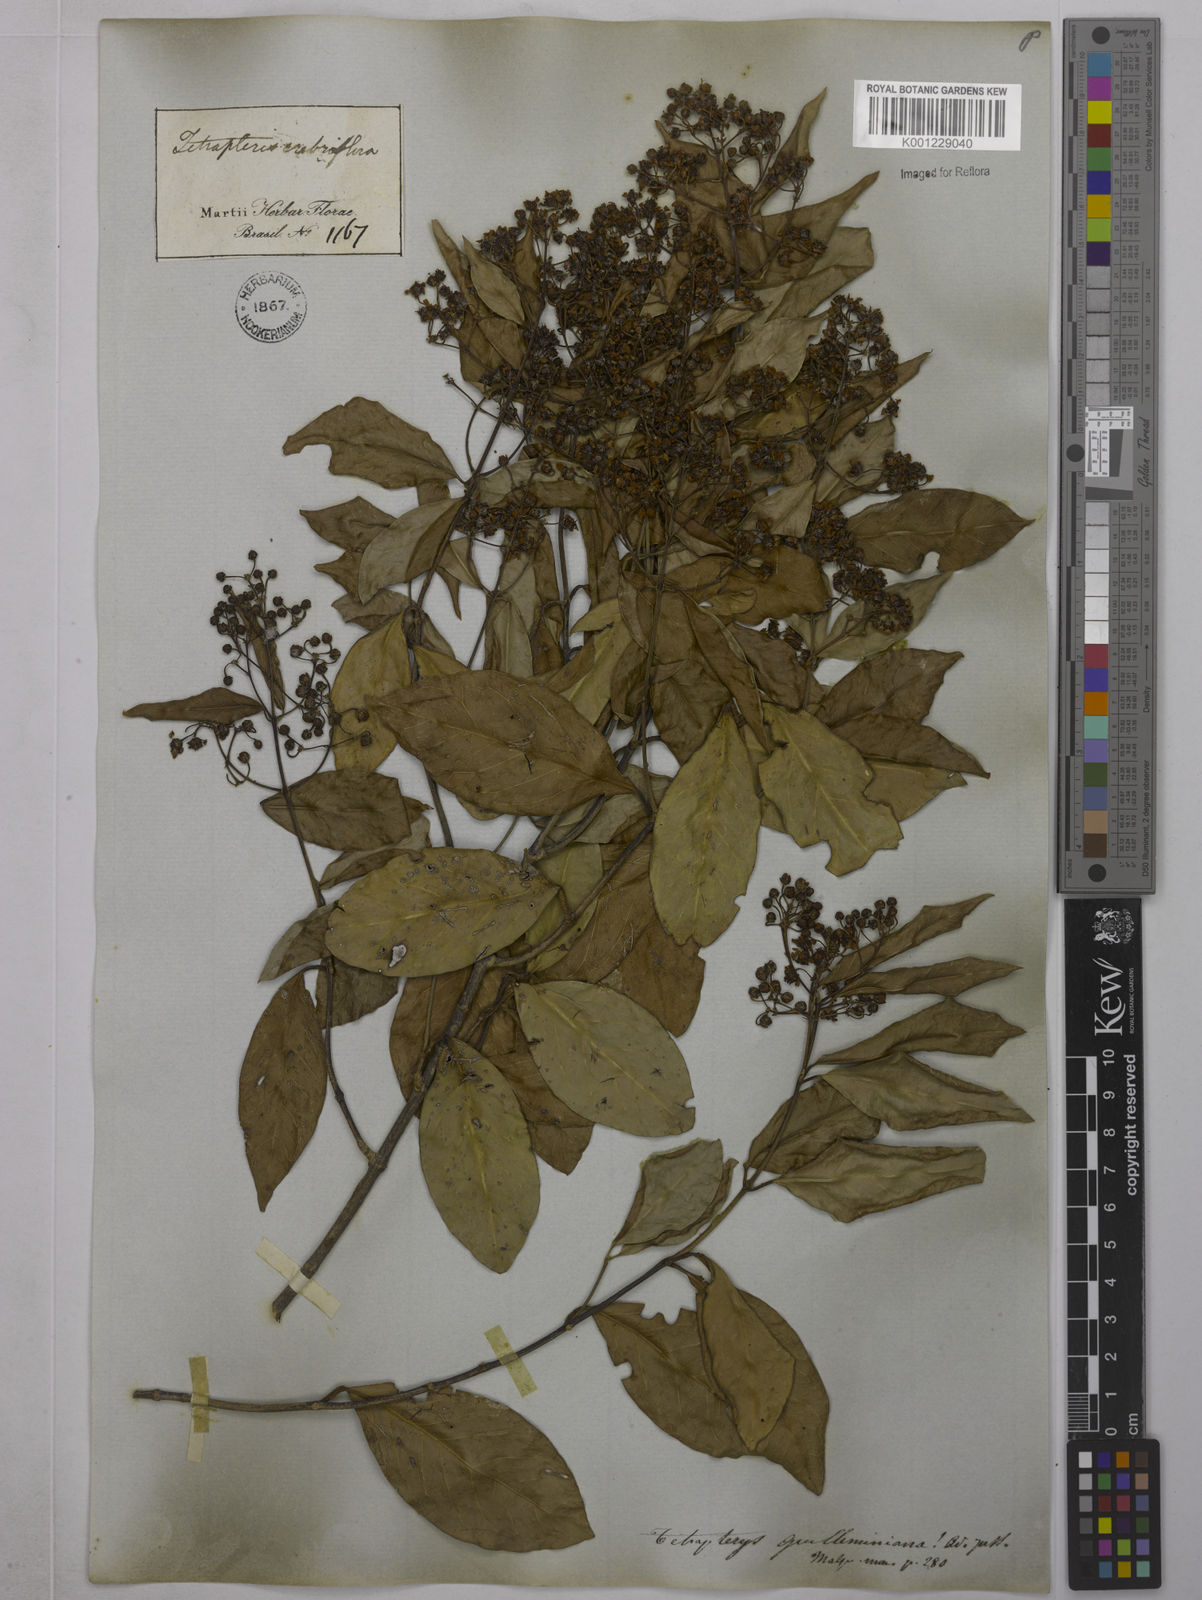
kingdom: Plantae
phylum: Tracheophyta
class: Magnoliopsida
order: Malpighiales
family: Malpighiaceae
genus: Niedenzuella
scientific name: Niedenzuella acutifolia
